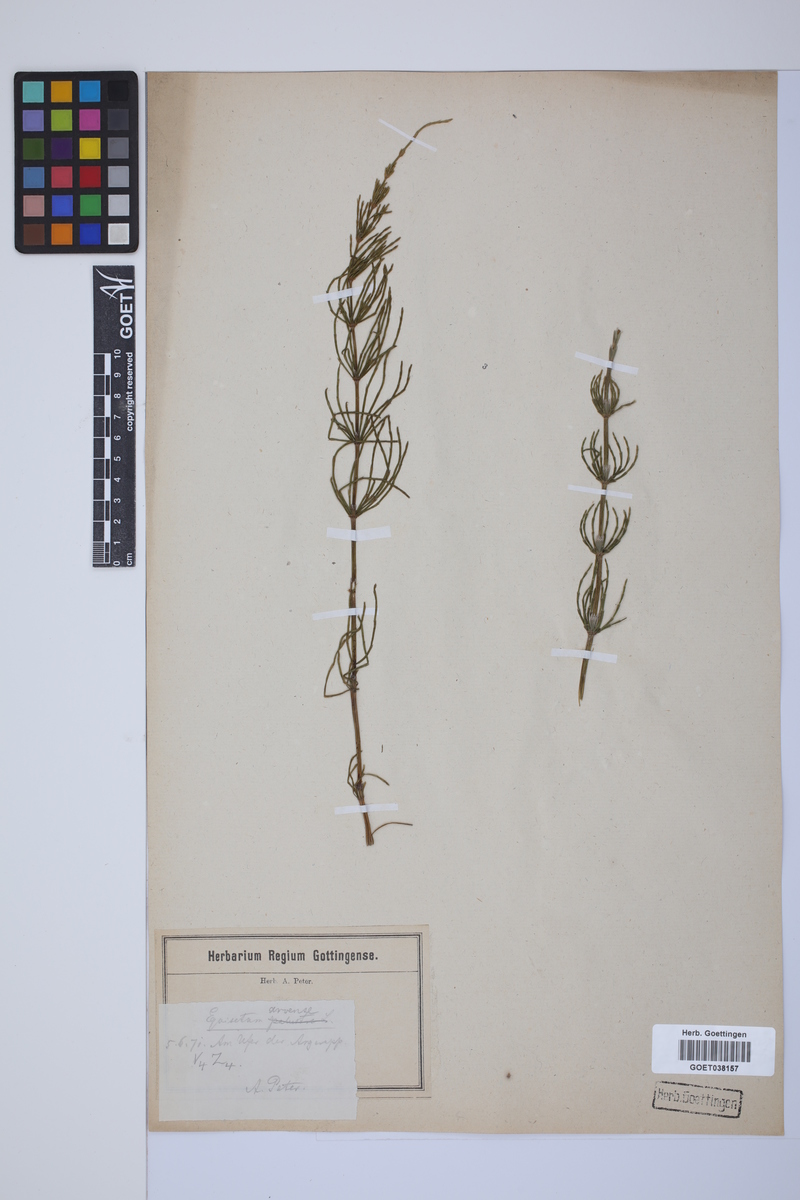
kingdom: Plantae
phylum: Tracheophyta
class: Polypodiopsida
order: Equisetales
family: Equisetaceae
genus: Equisetum
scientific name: Equisetum arvense
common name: Field horsetail
